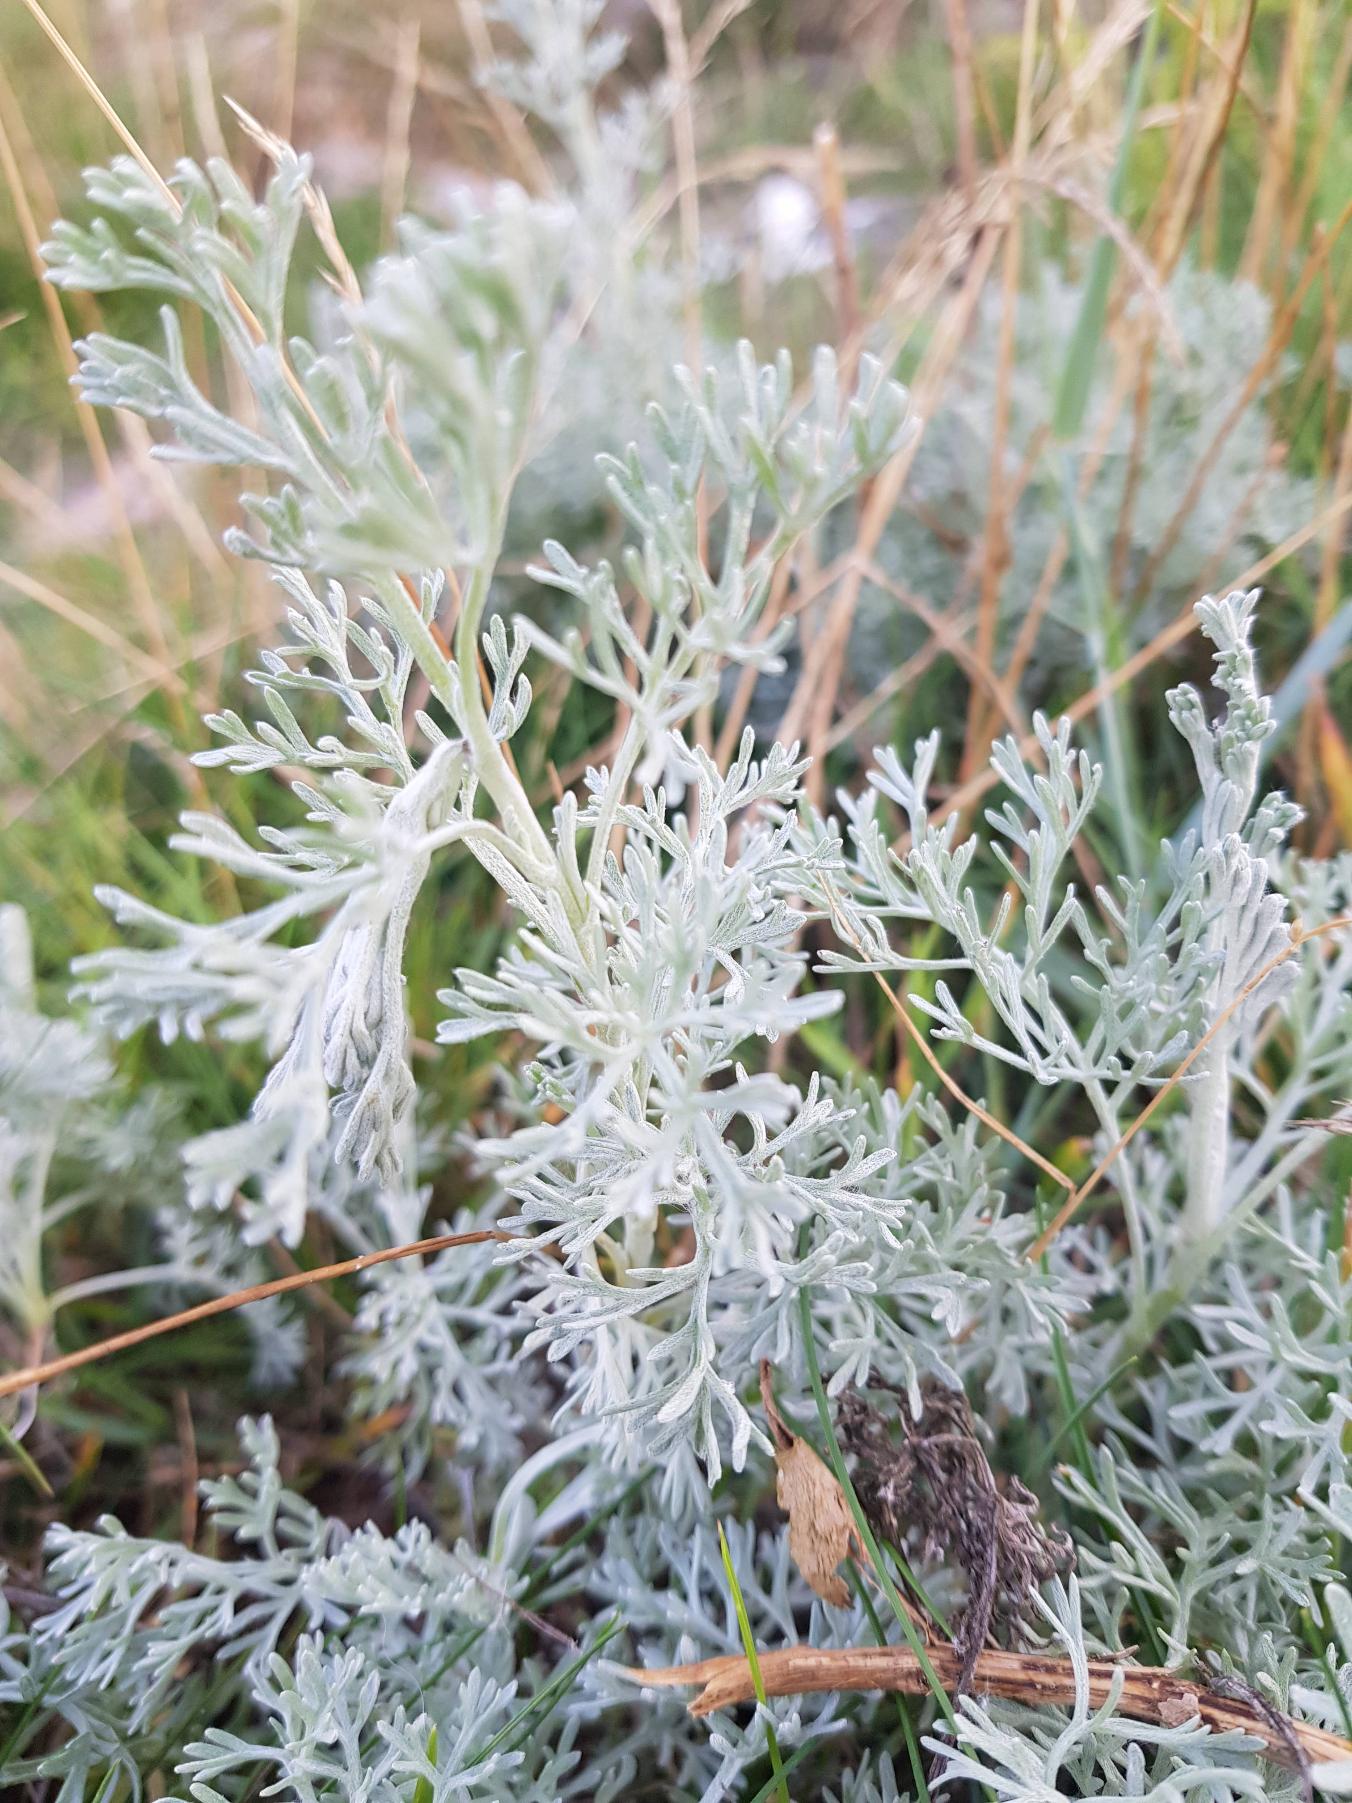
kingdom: Plantae
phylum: Tracheophyta
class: Magnoliopsida
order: Asterales
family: Asteraceae
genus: Artemisia
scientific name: Artemisia maritima
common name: Strandmalurt
